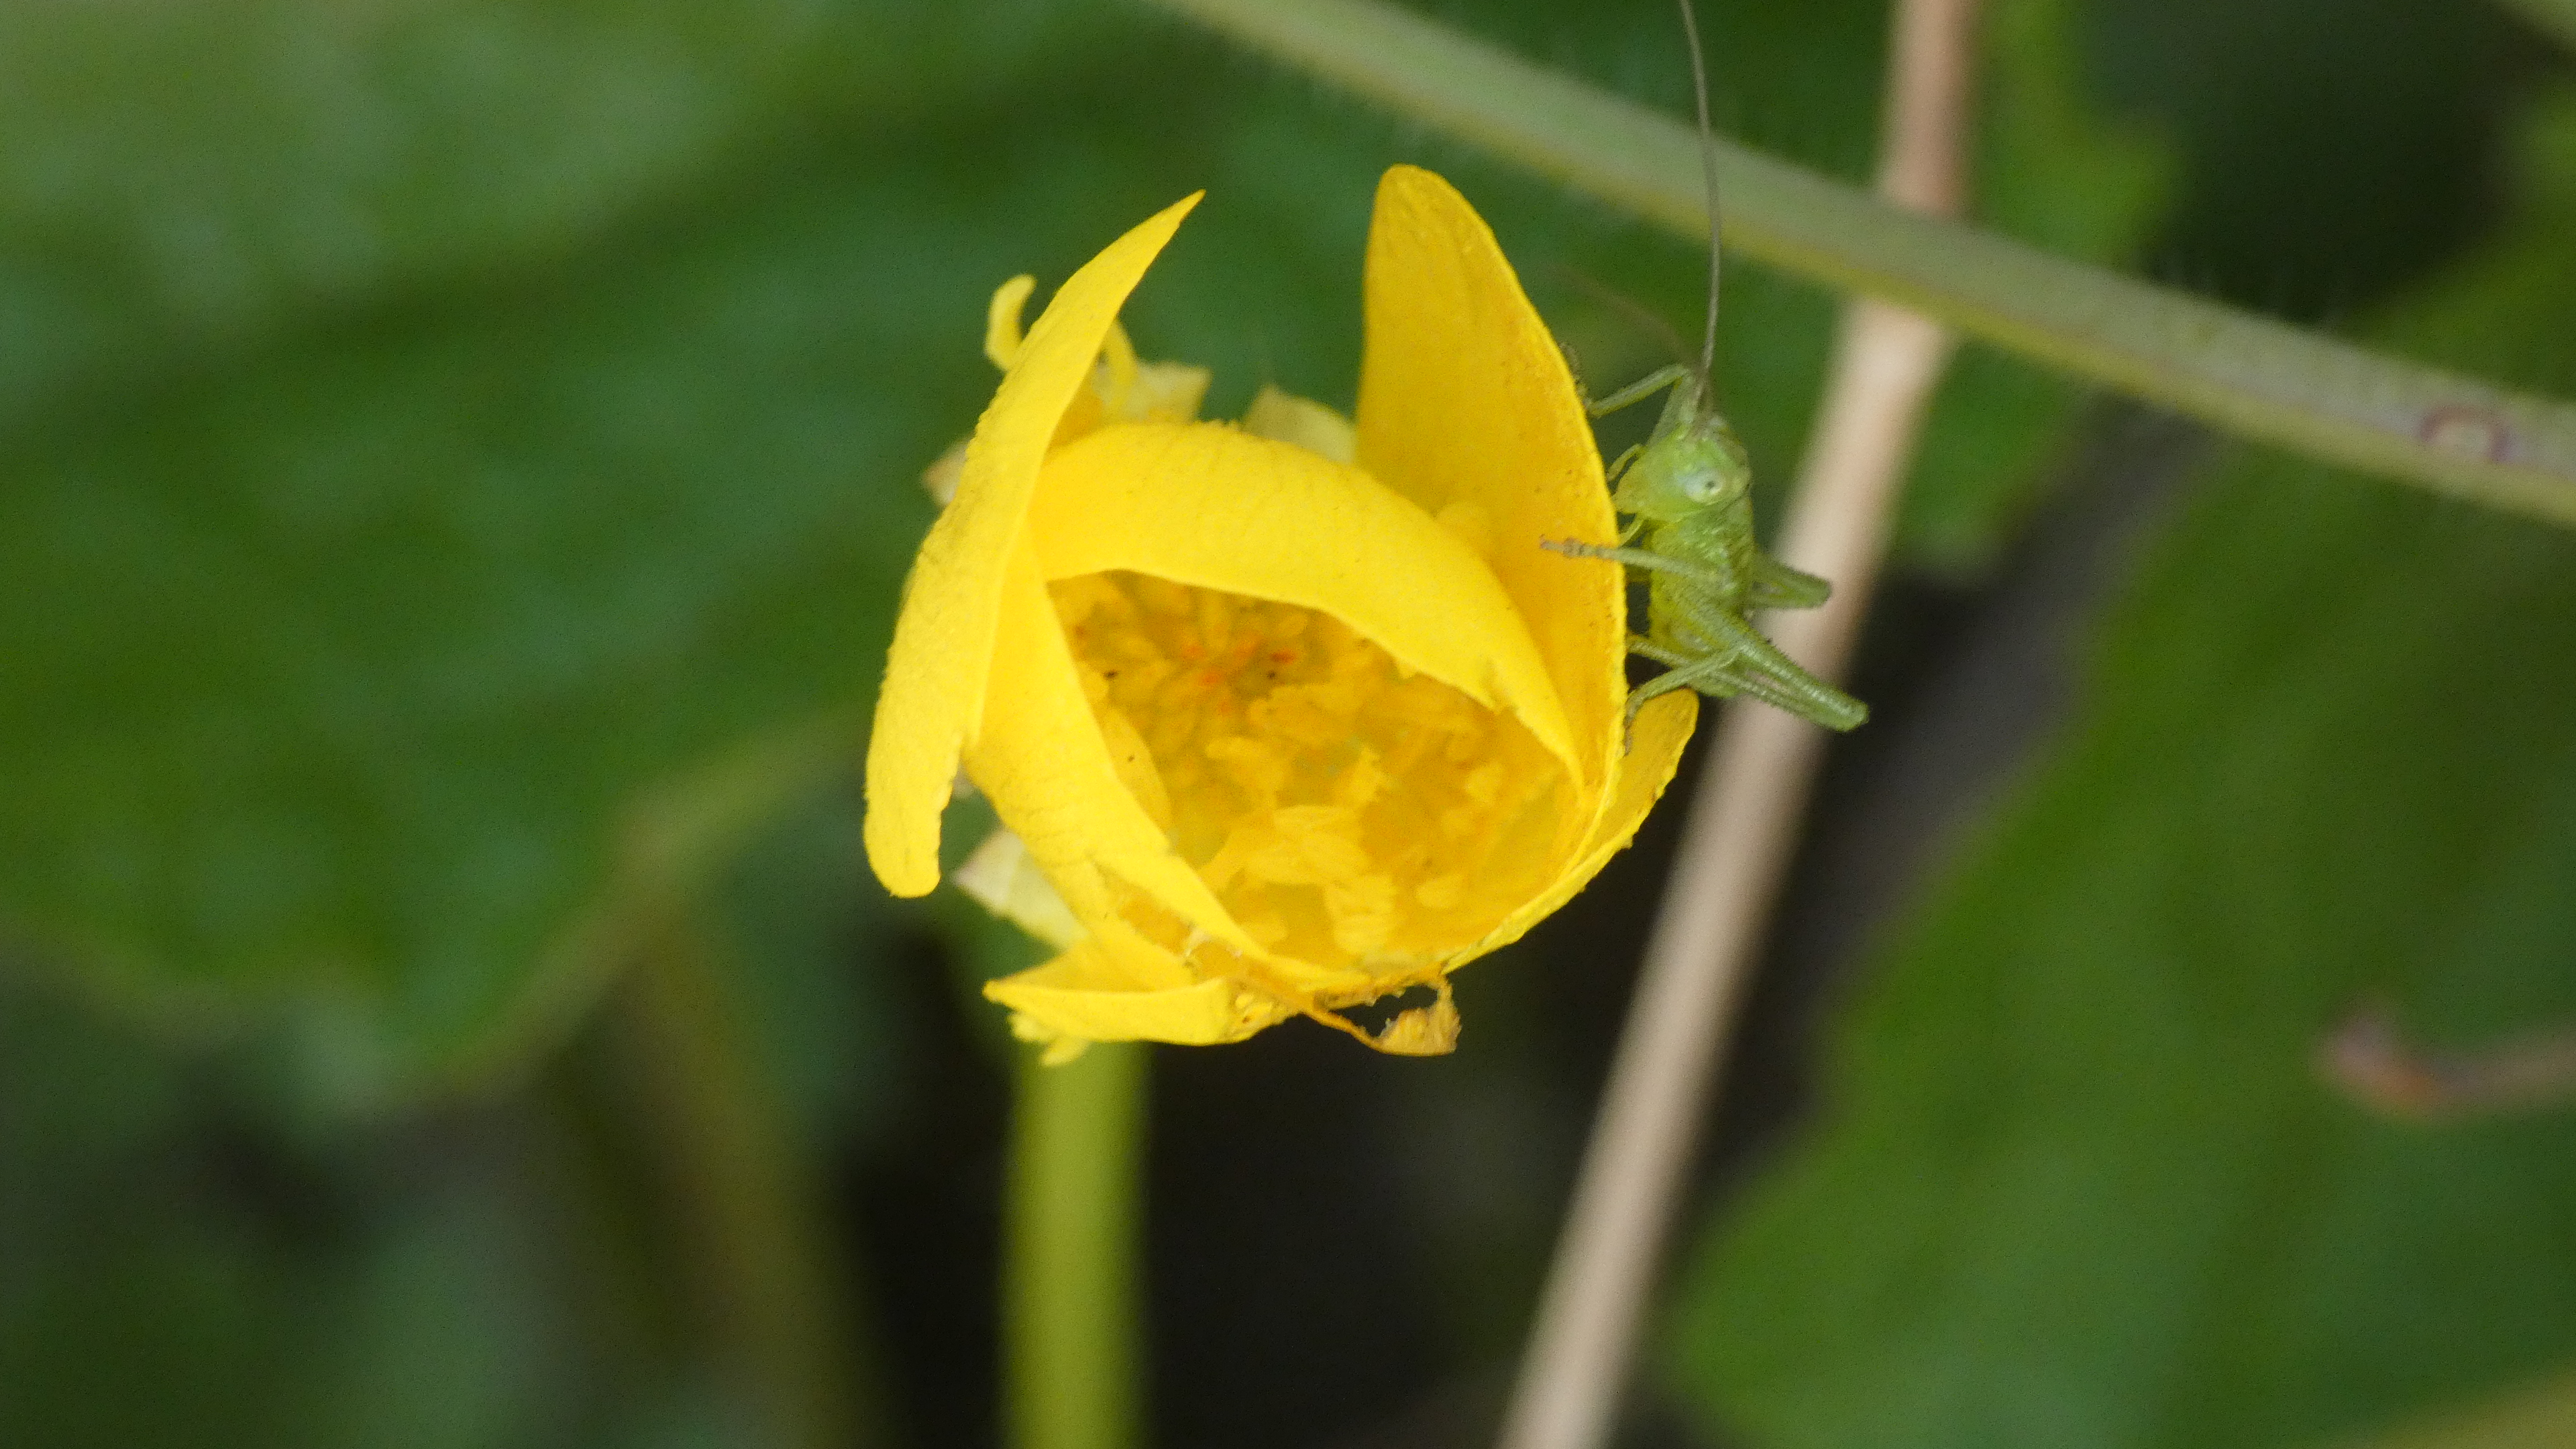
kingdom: Plantae
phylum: Tracheophyta
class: Magnoliopsida
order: Ranunculales
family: Ranunculaceae
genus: Ranunculus
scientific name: Ranunculus bulbosus
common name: Knold-ranunkel
